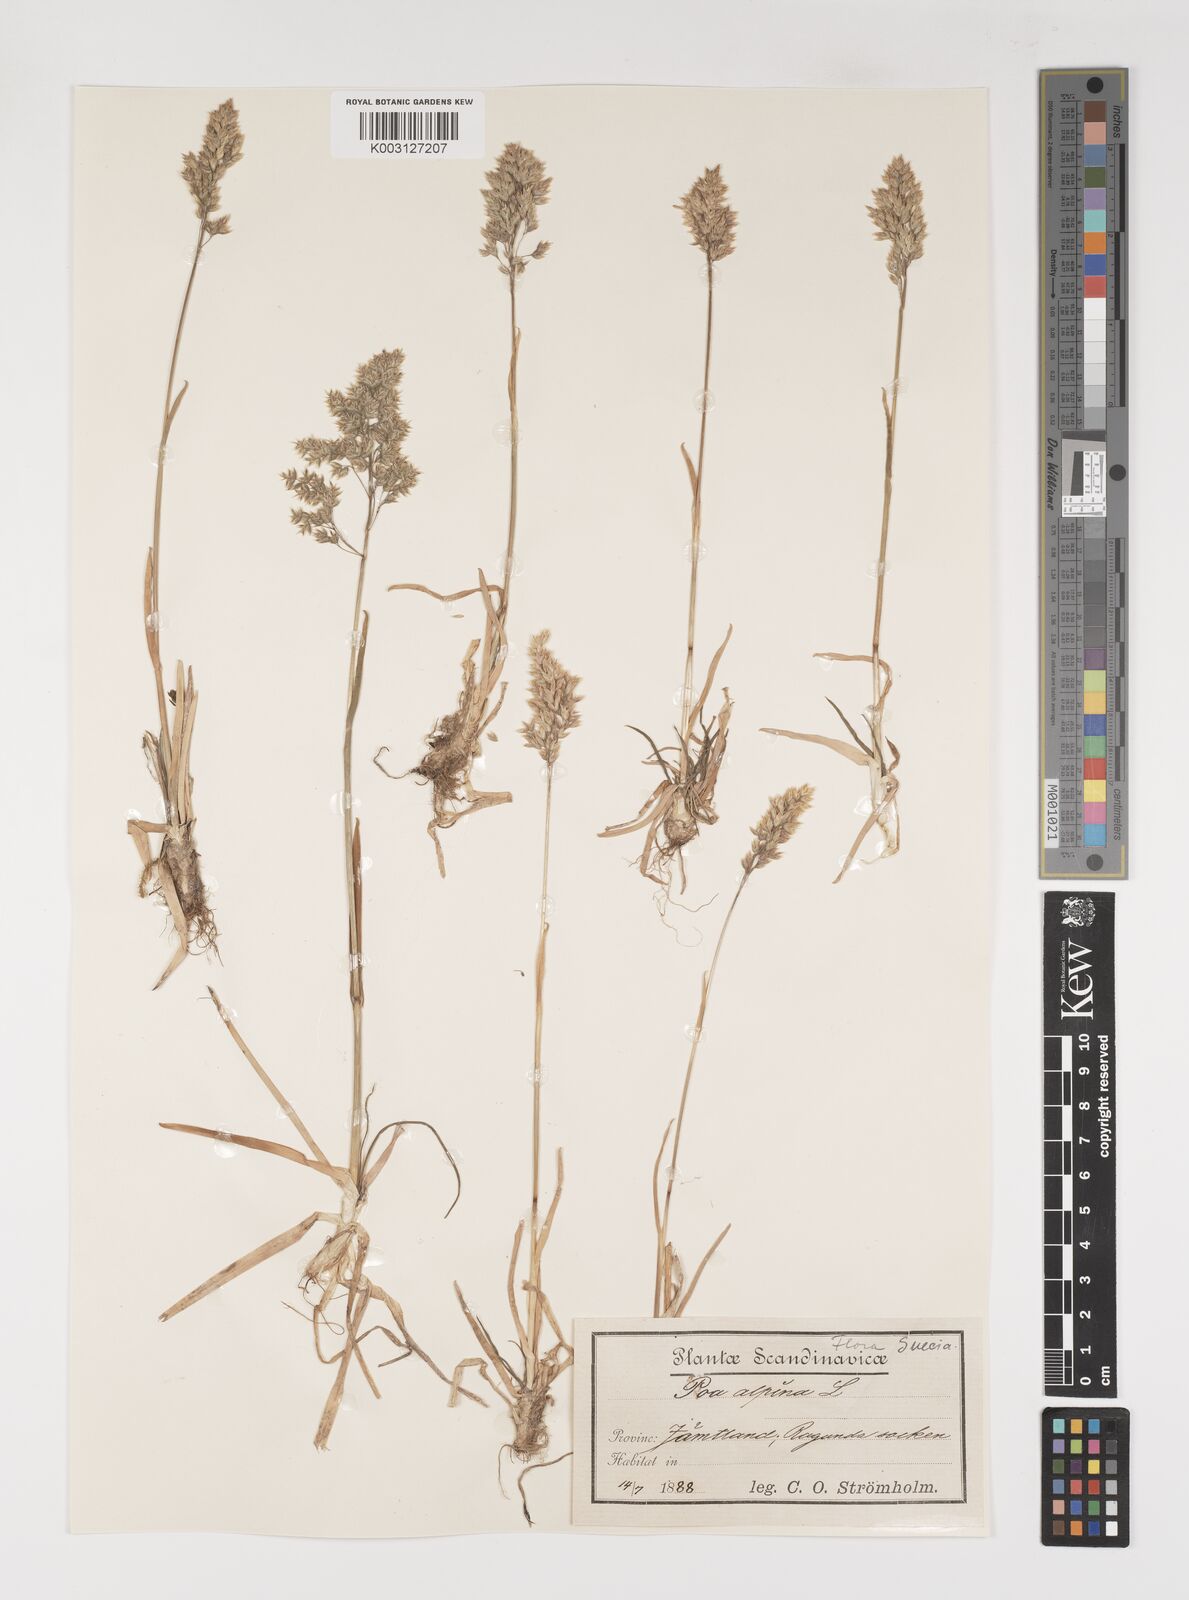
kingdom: Plantae
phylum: Tracheophyta
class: Liliopsida
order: Poales
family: Poaceae
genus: Poa
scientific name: Poa alpina
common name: Alpine bluegrass
